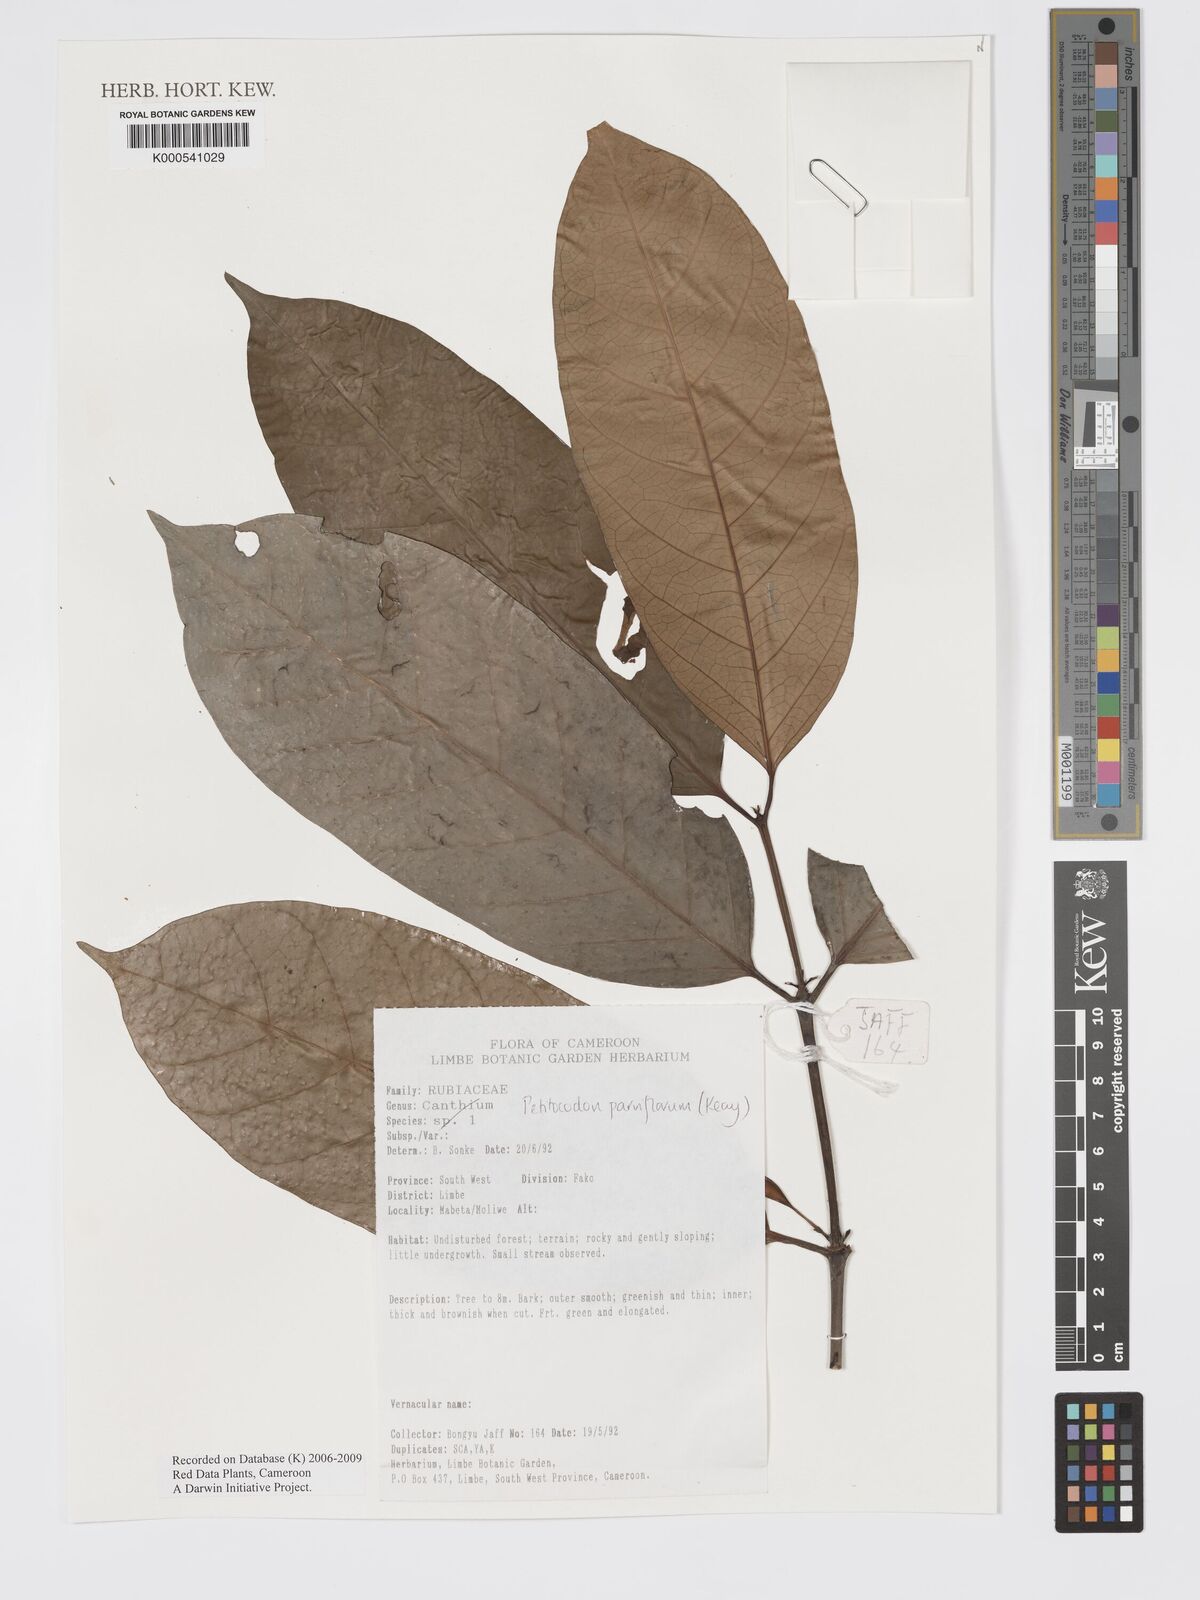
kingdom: Plantae
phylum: Tracheophyta
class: Magnoliopsida
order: Gentianales
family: Rubiaceae
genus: Petitiocodon
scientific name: Petitiocodon parviflorum
